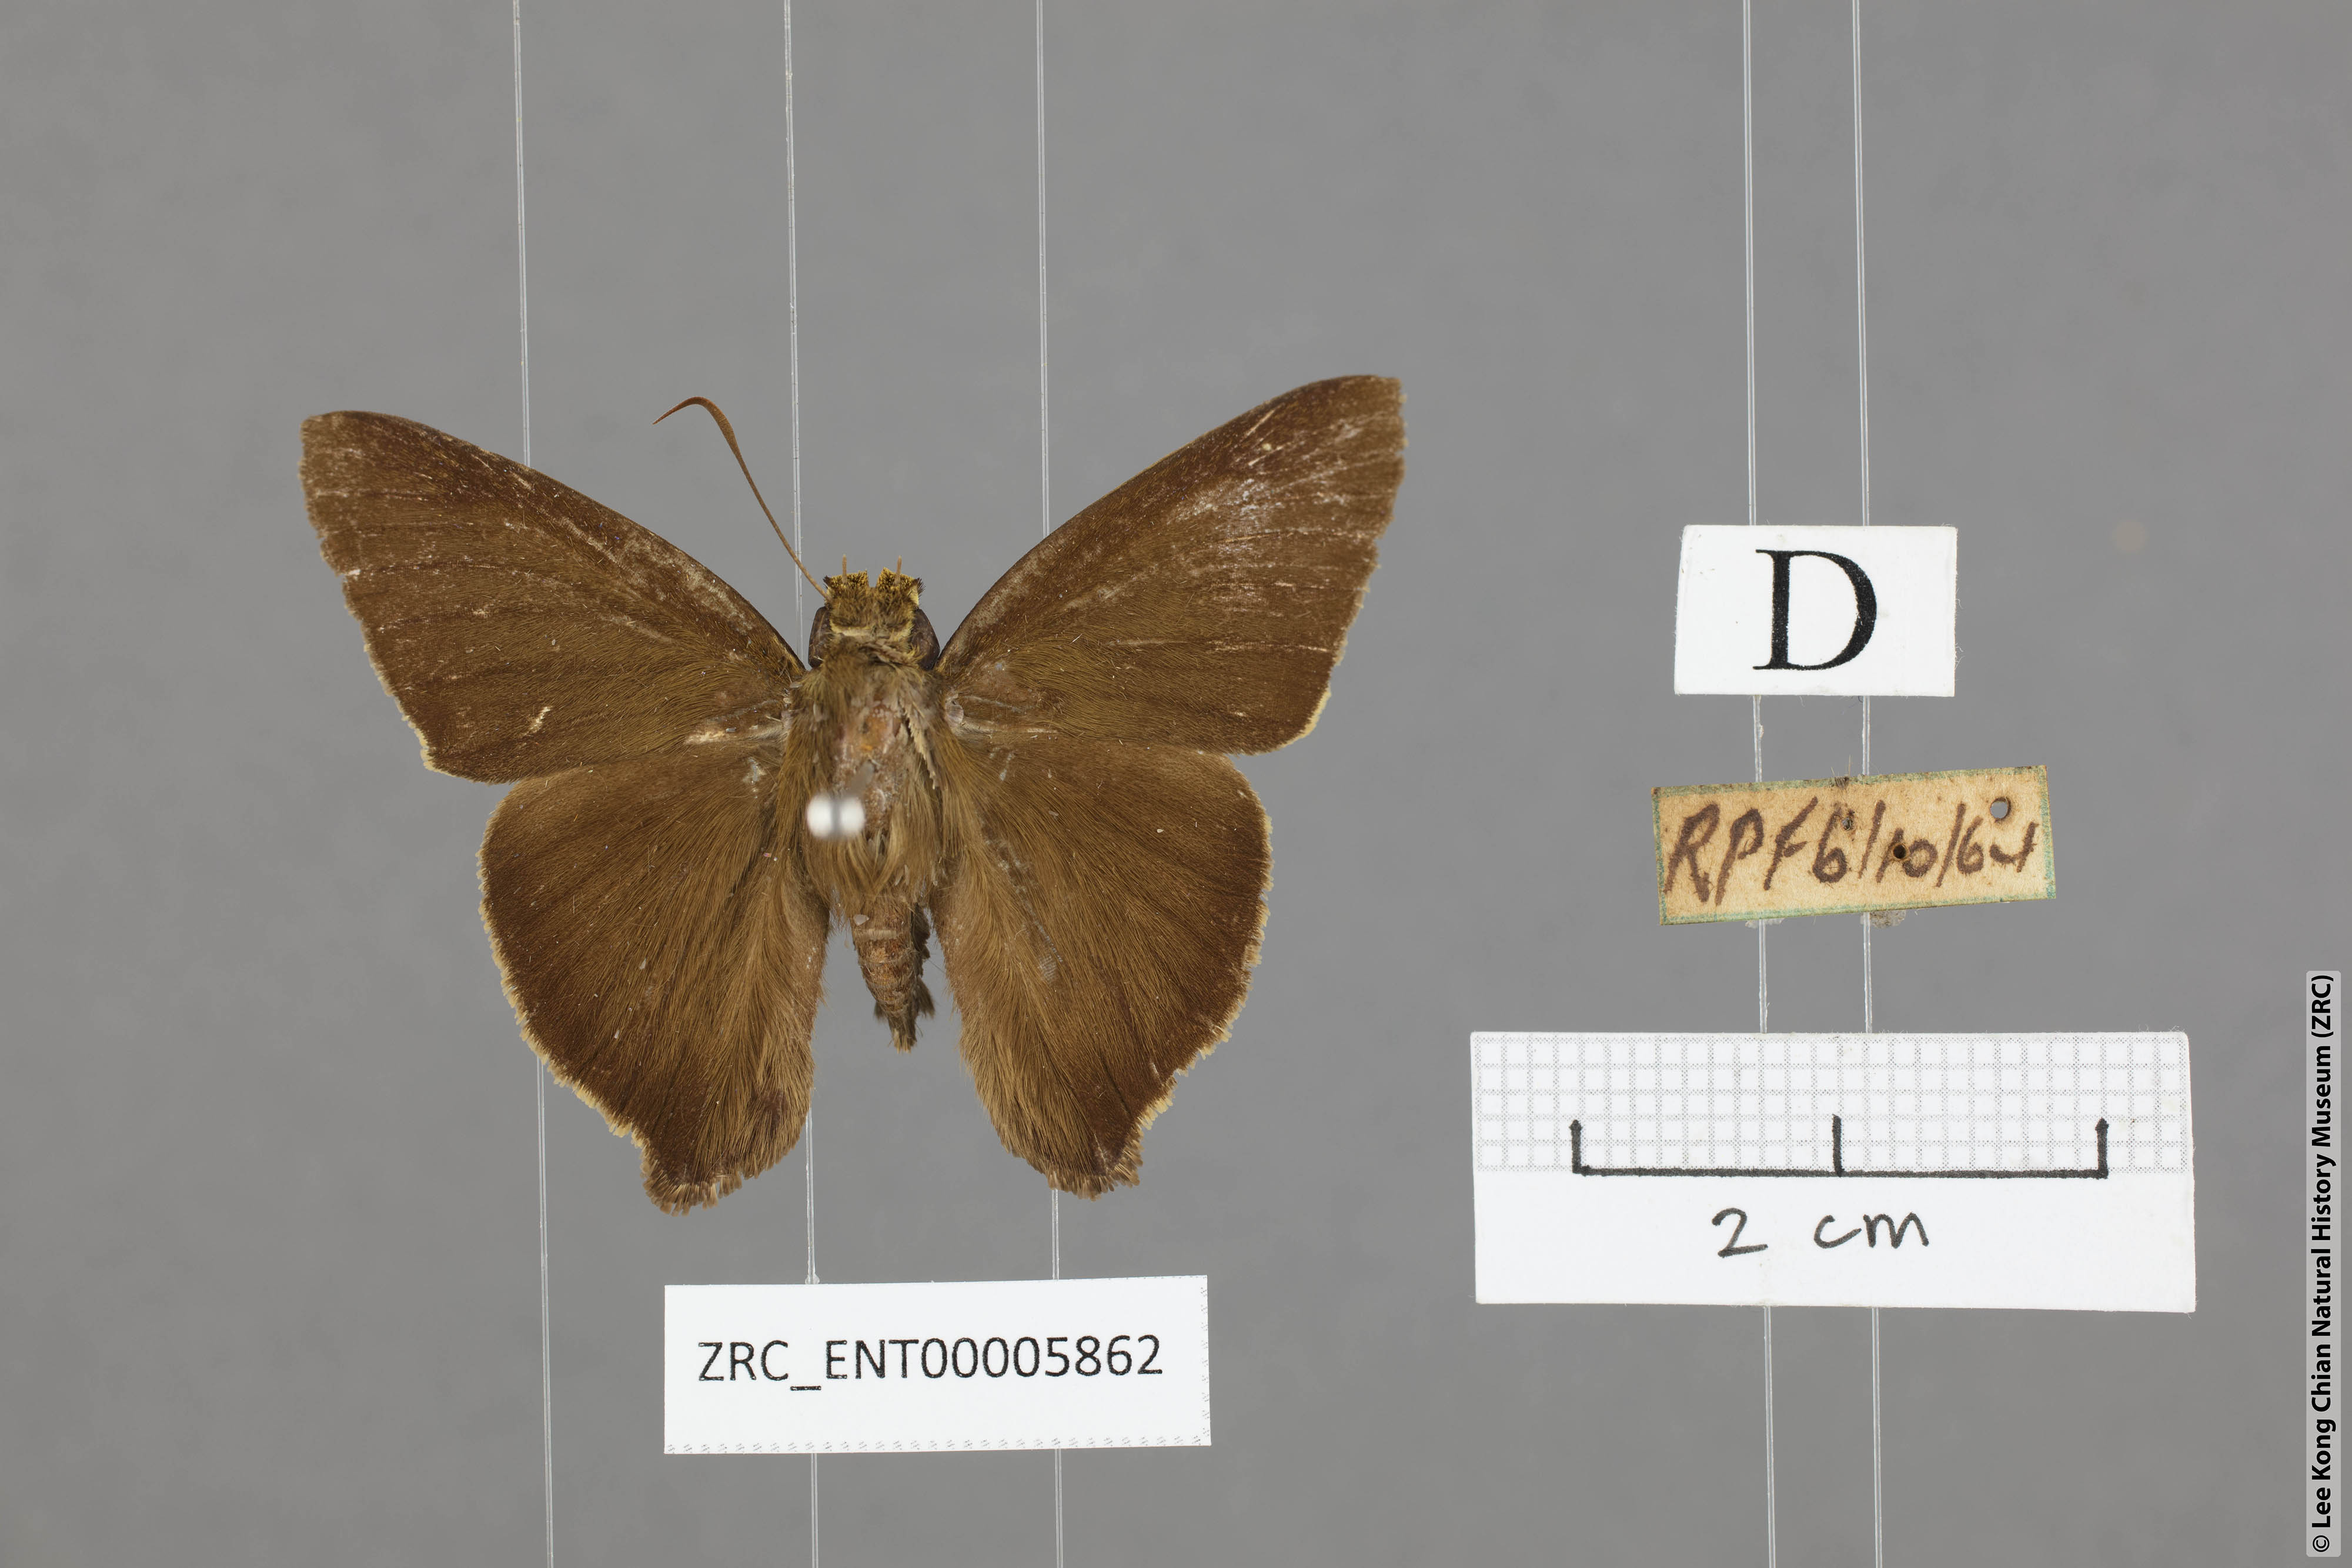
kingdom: Animalia
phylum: Arthropoda
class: Insecta
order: Lepidoptera
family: Hesperiidae
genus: Hasora
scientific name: Hasora badra
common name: Common awl
